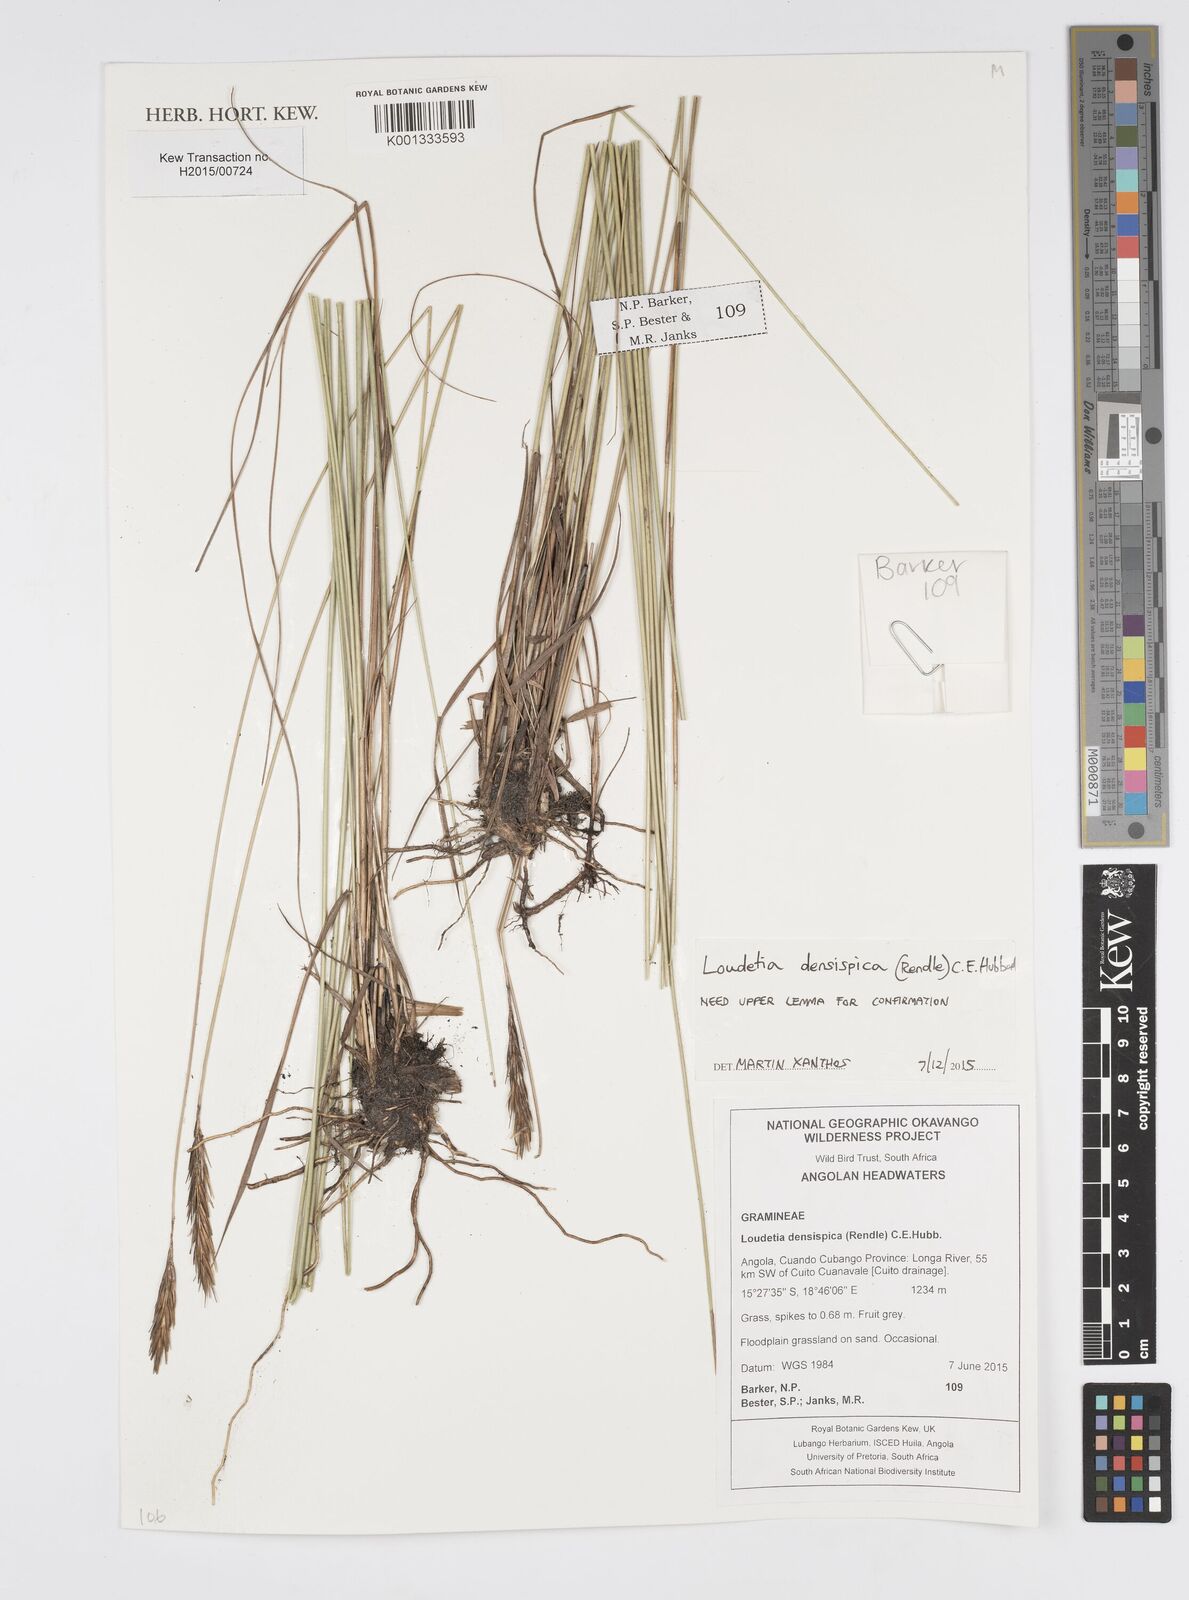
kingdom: Plantae
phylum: Tracheophyta
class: Liliopsida
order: Poales
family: Poaceae
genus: Loudetia
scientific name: Loudetia densispica
